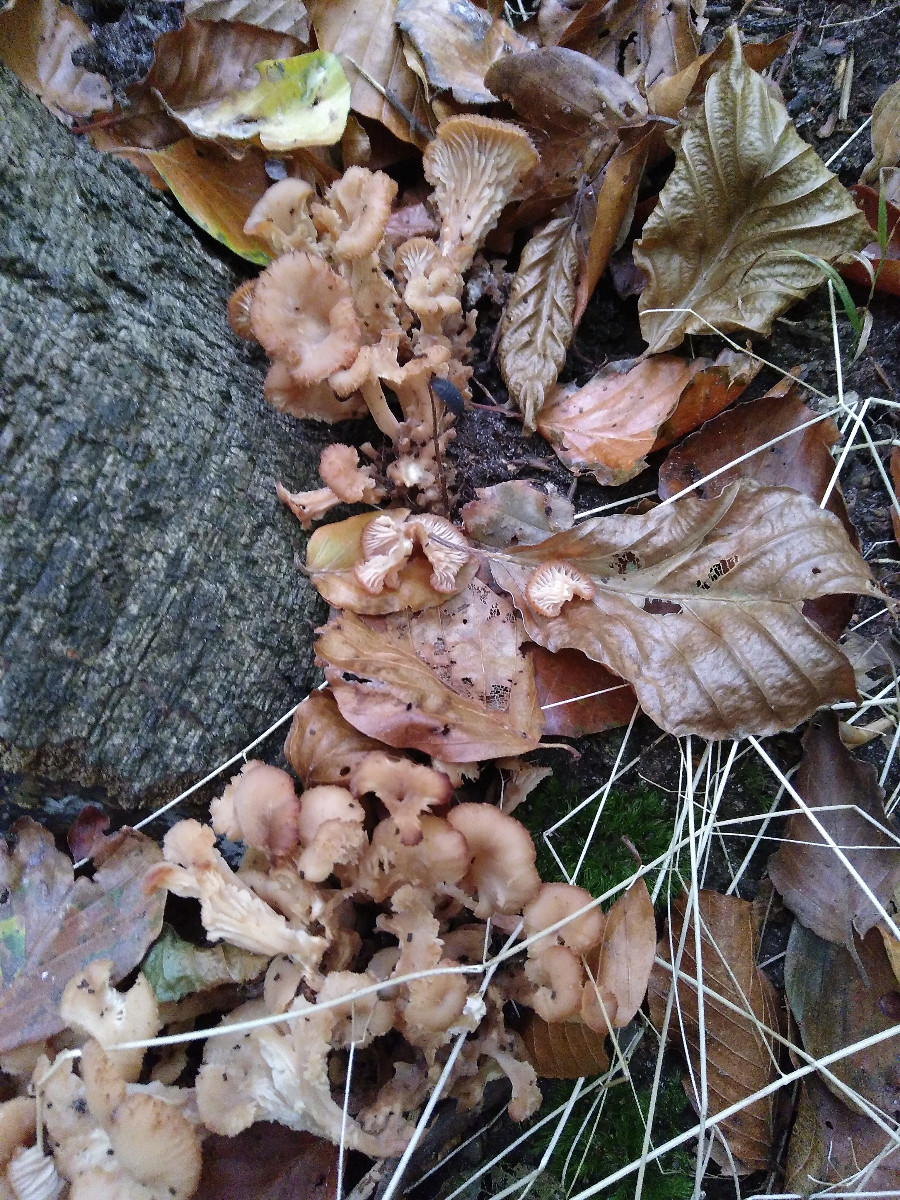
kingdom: Fungi
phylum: Basidiomycota
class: Agaricomycetes
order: Russulales
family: Auriscalpiaceae
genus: Lentinellus
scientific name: Lentinellus cochleatus
